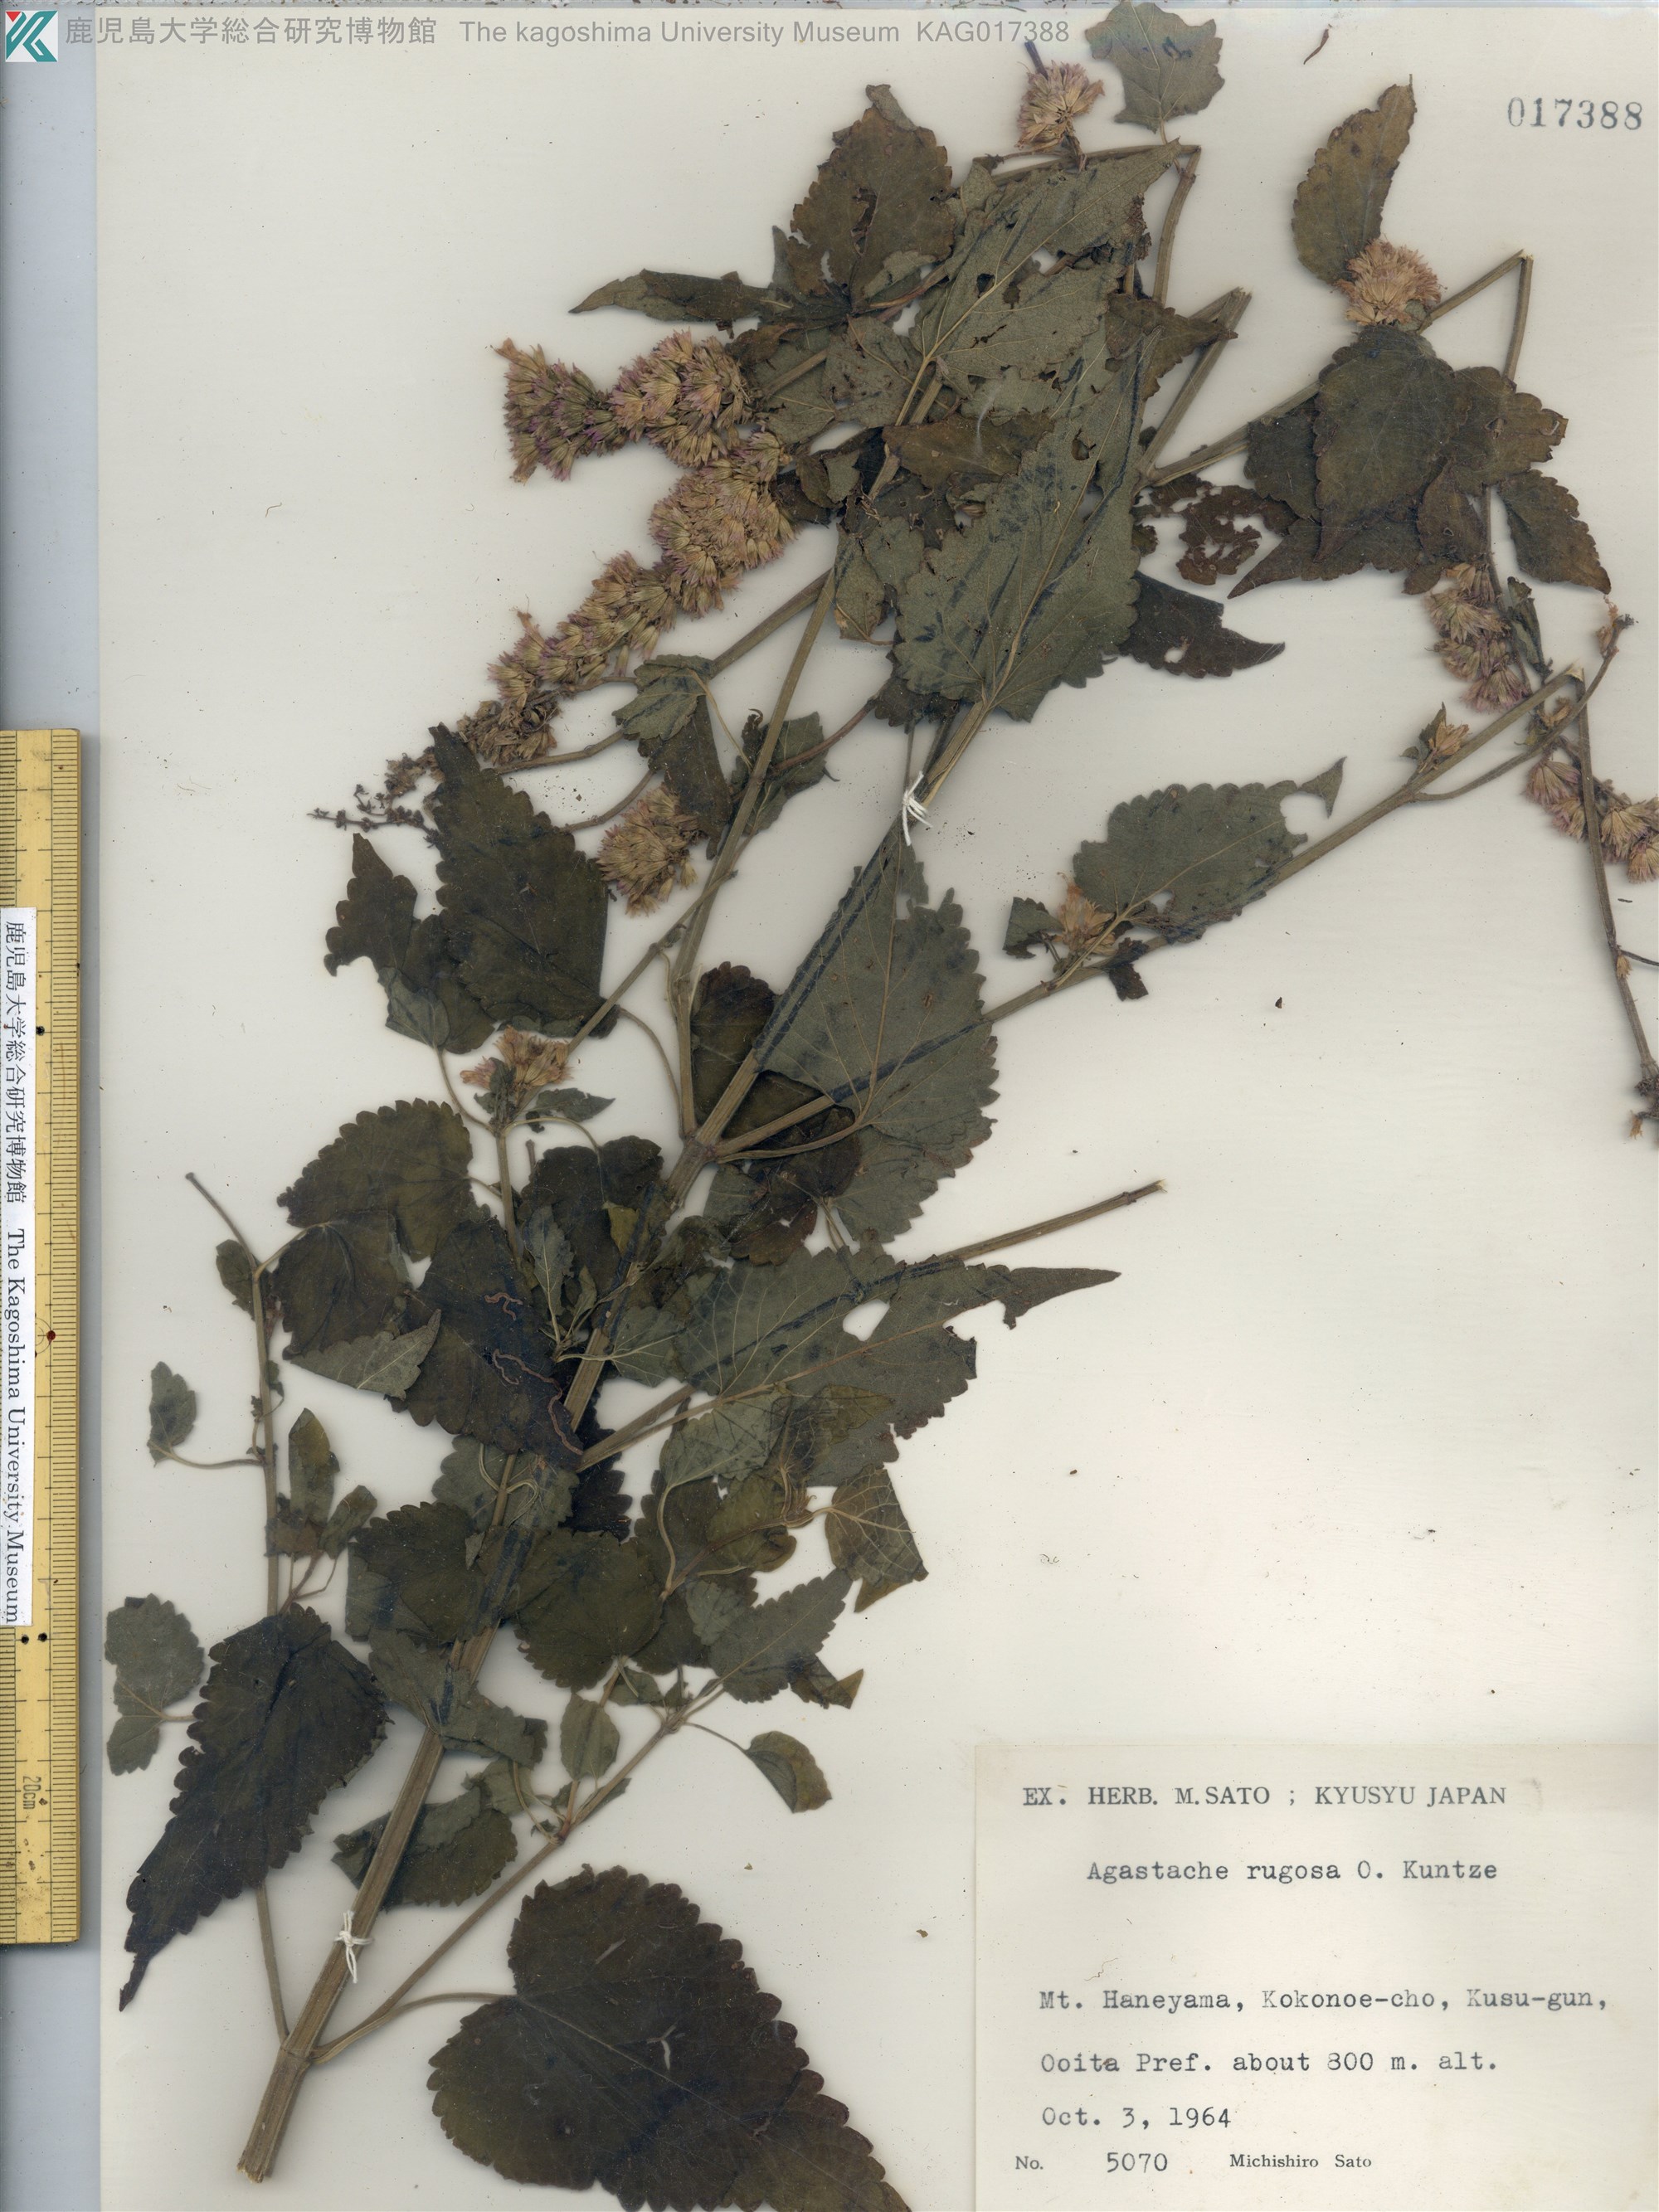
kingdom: Plantae
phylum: Tracheophyta
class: Magnoliopsida
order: Lamiales
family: Lamiaceae
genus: Agastache
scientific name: Agastache rugosa
